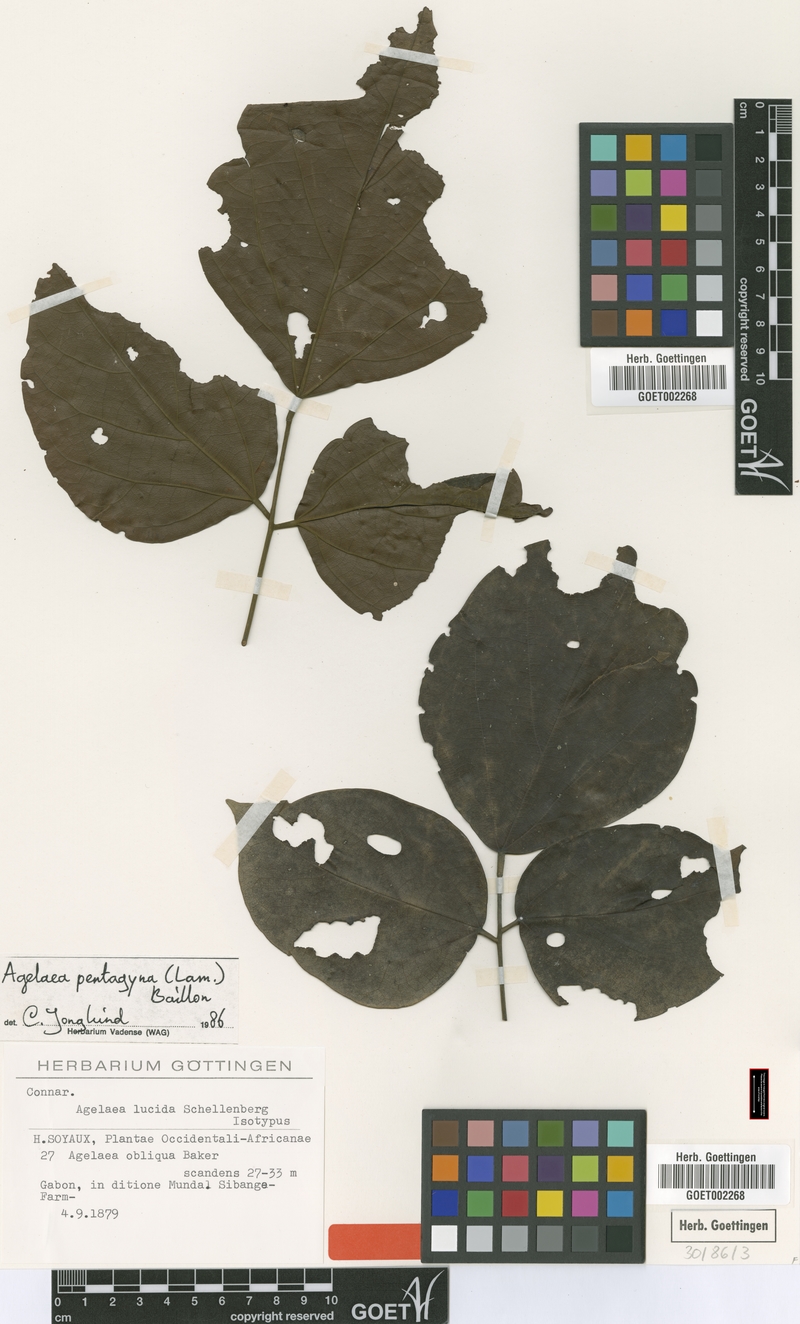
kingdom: Plantae
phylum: Tracheophyta
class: Magnoliopsida
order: Oxalidales
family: Connaraceae
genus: Agelaea
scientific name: Agelaea pentagyna
